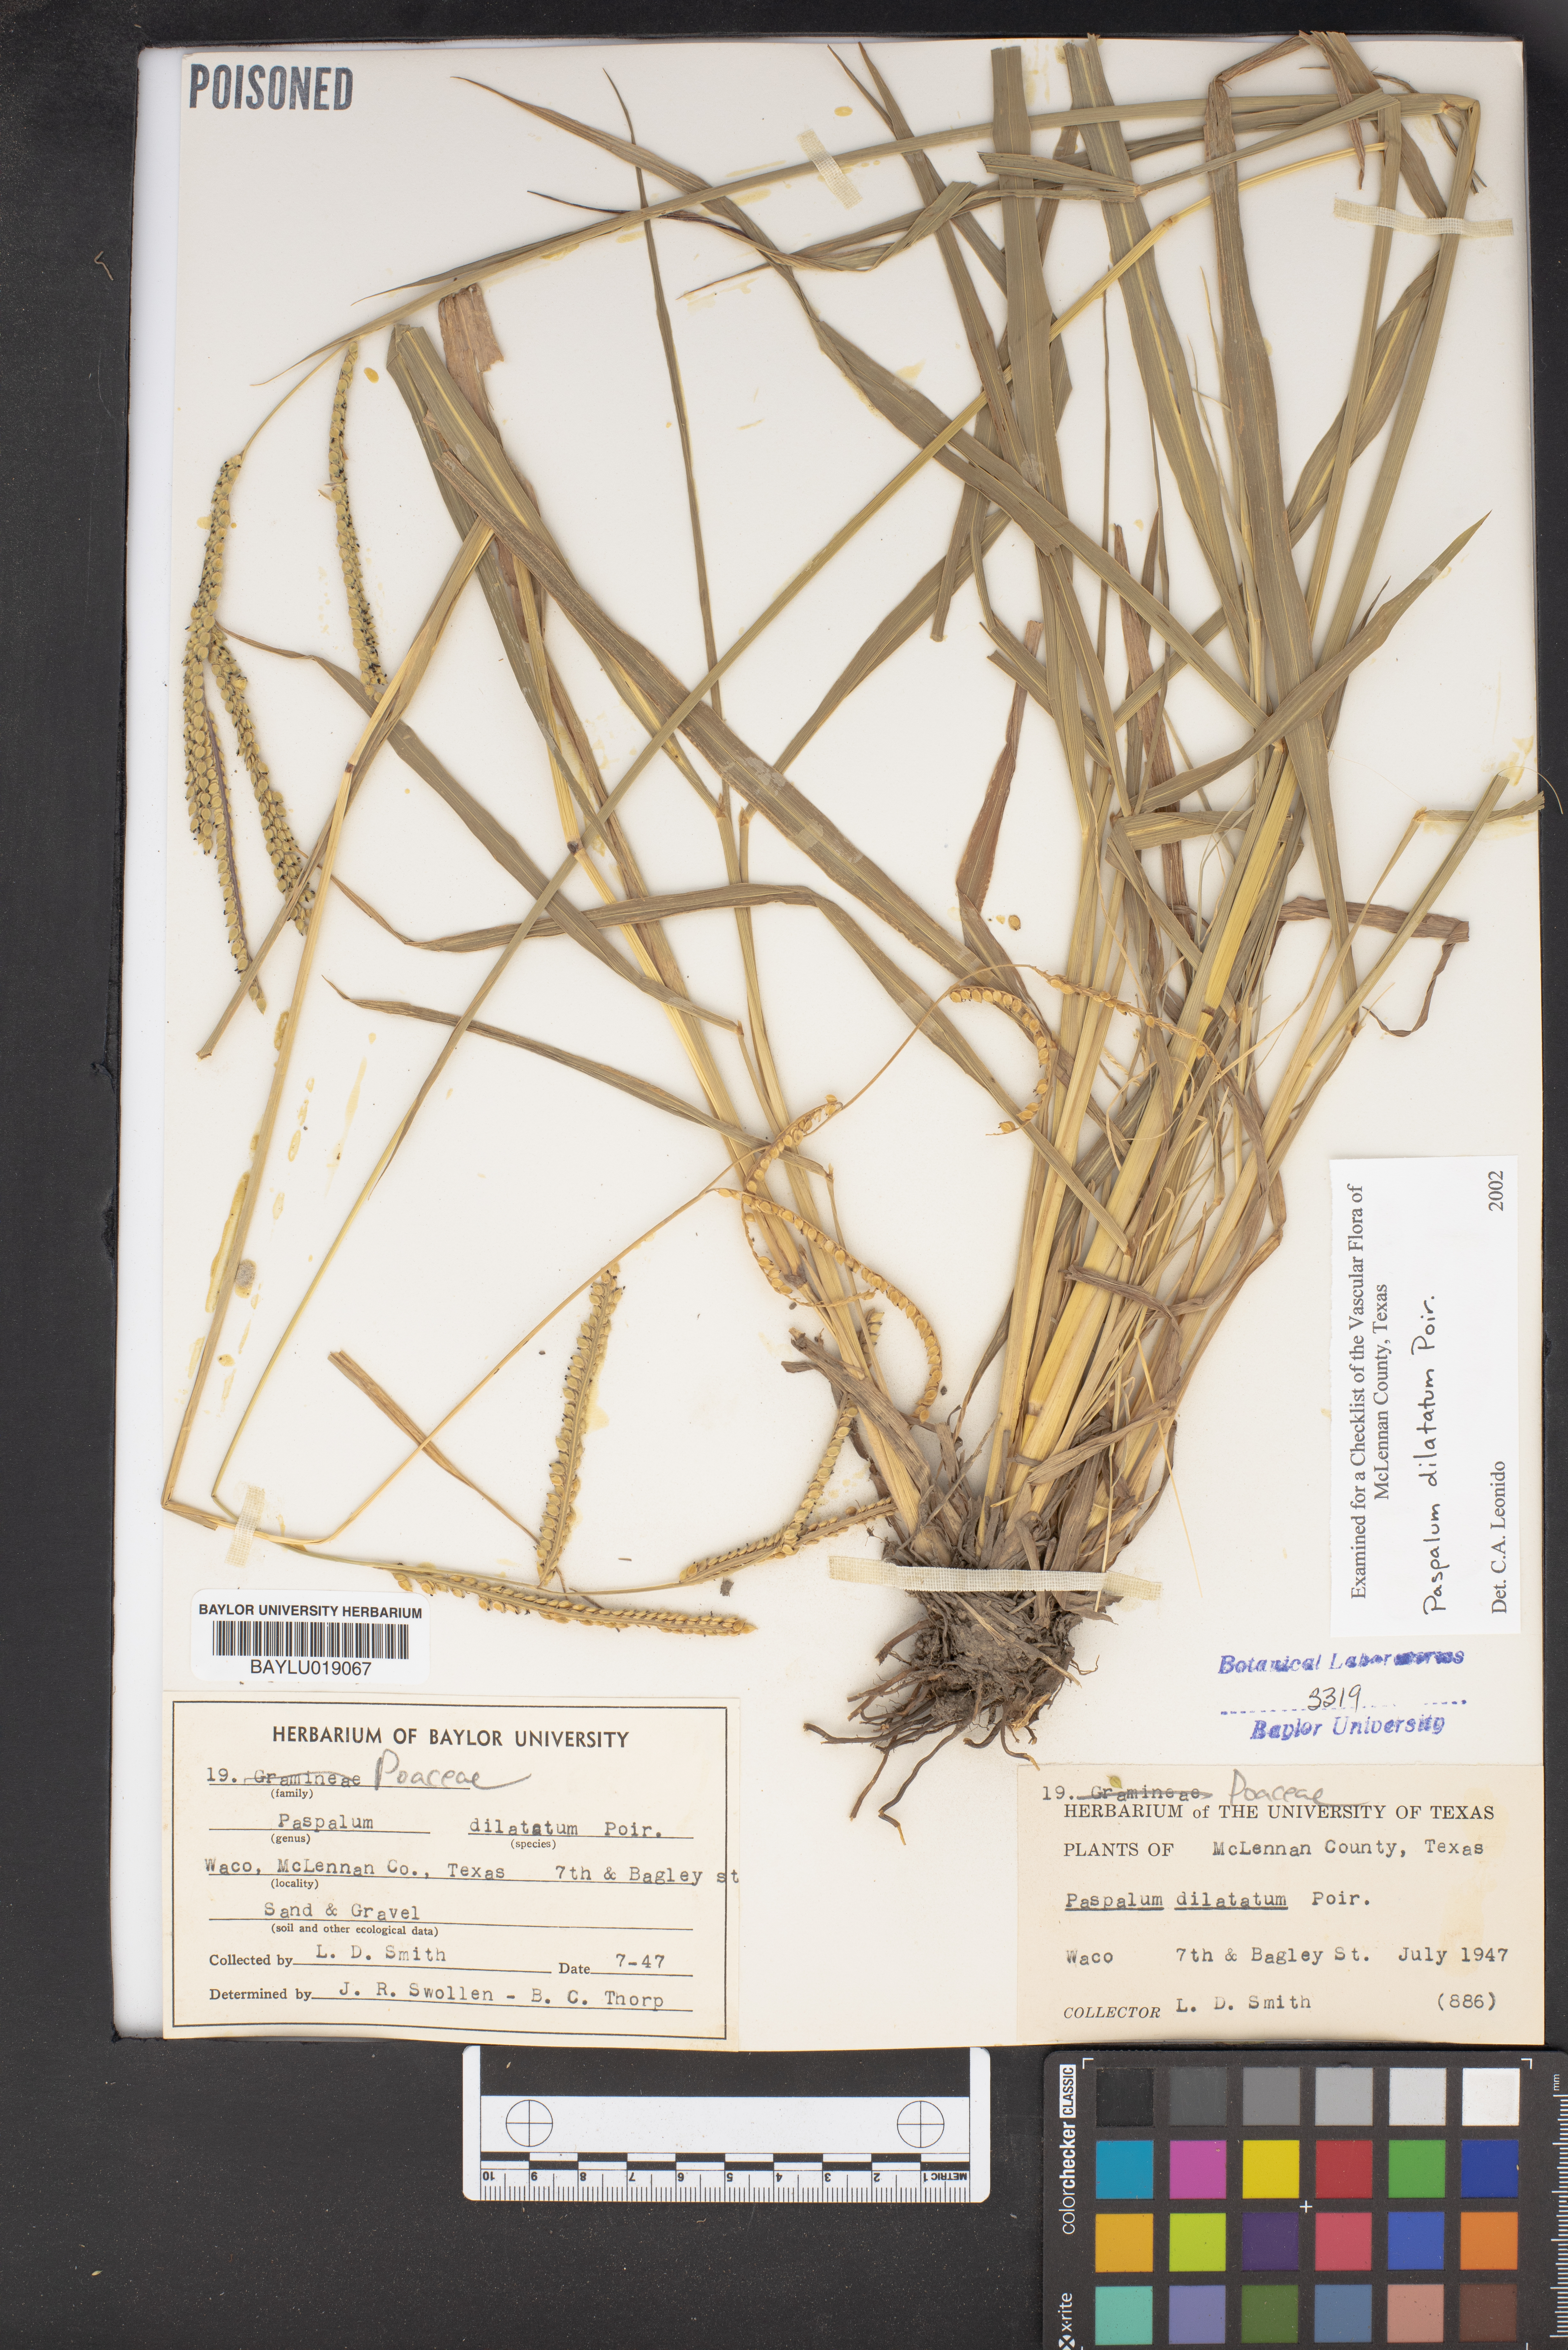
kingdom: Plantae
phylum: Tracheophyta
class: Liliopsida
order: Poales
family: Poaceae
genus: Paspalum
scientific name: Paspalum dilatatum
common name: Dallisgrass
